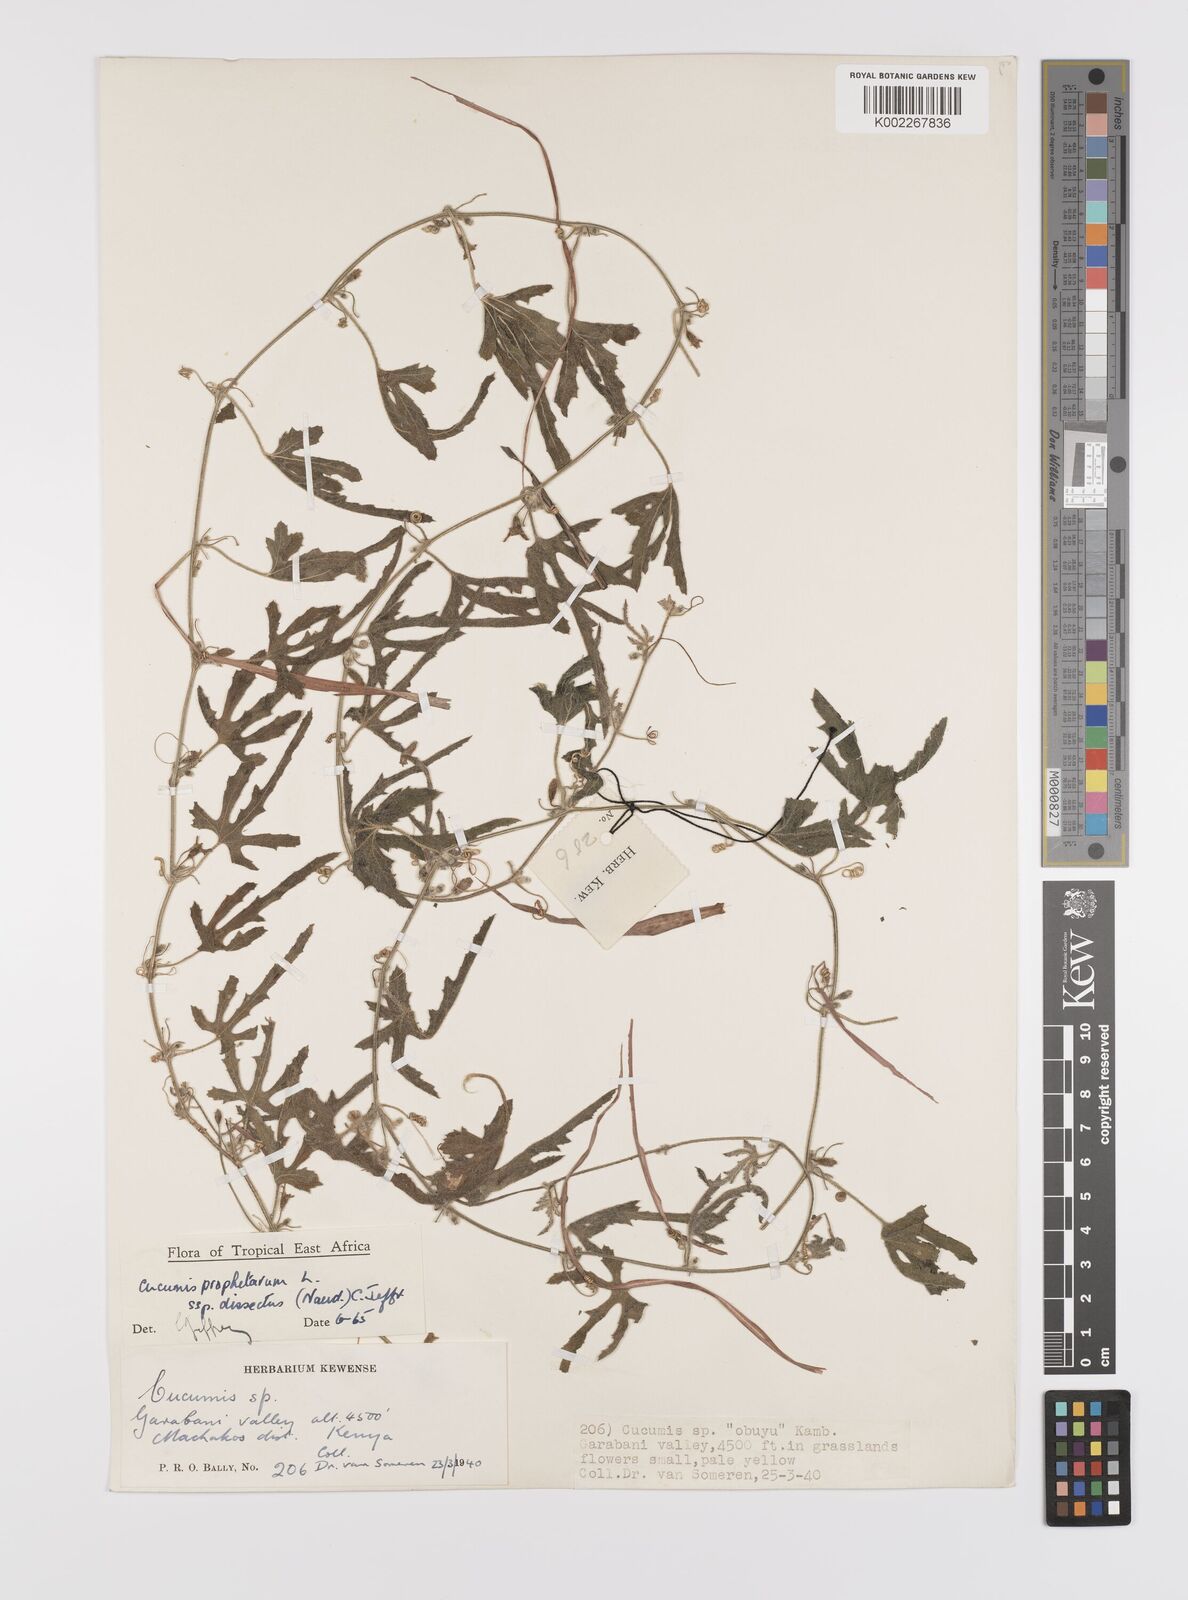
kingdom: Plantae
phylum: Tracheophyta
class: Magnoliopsida
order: Cucurbitales
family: Cucurbitaceae
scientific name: Cucurbitaceae
